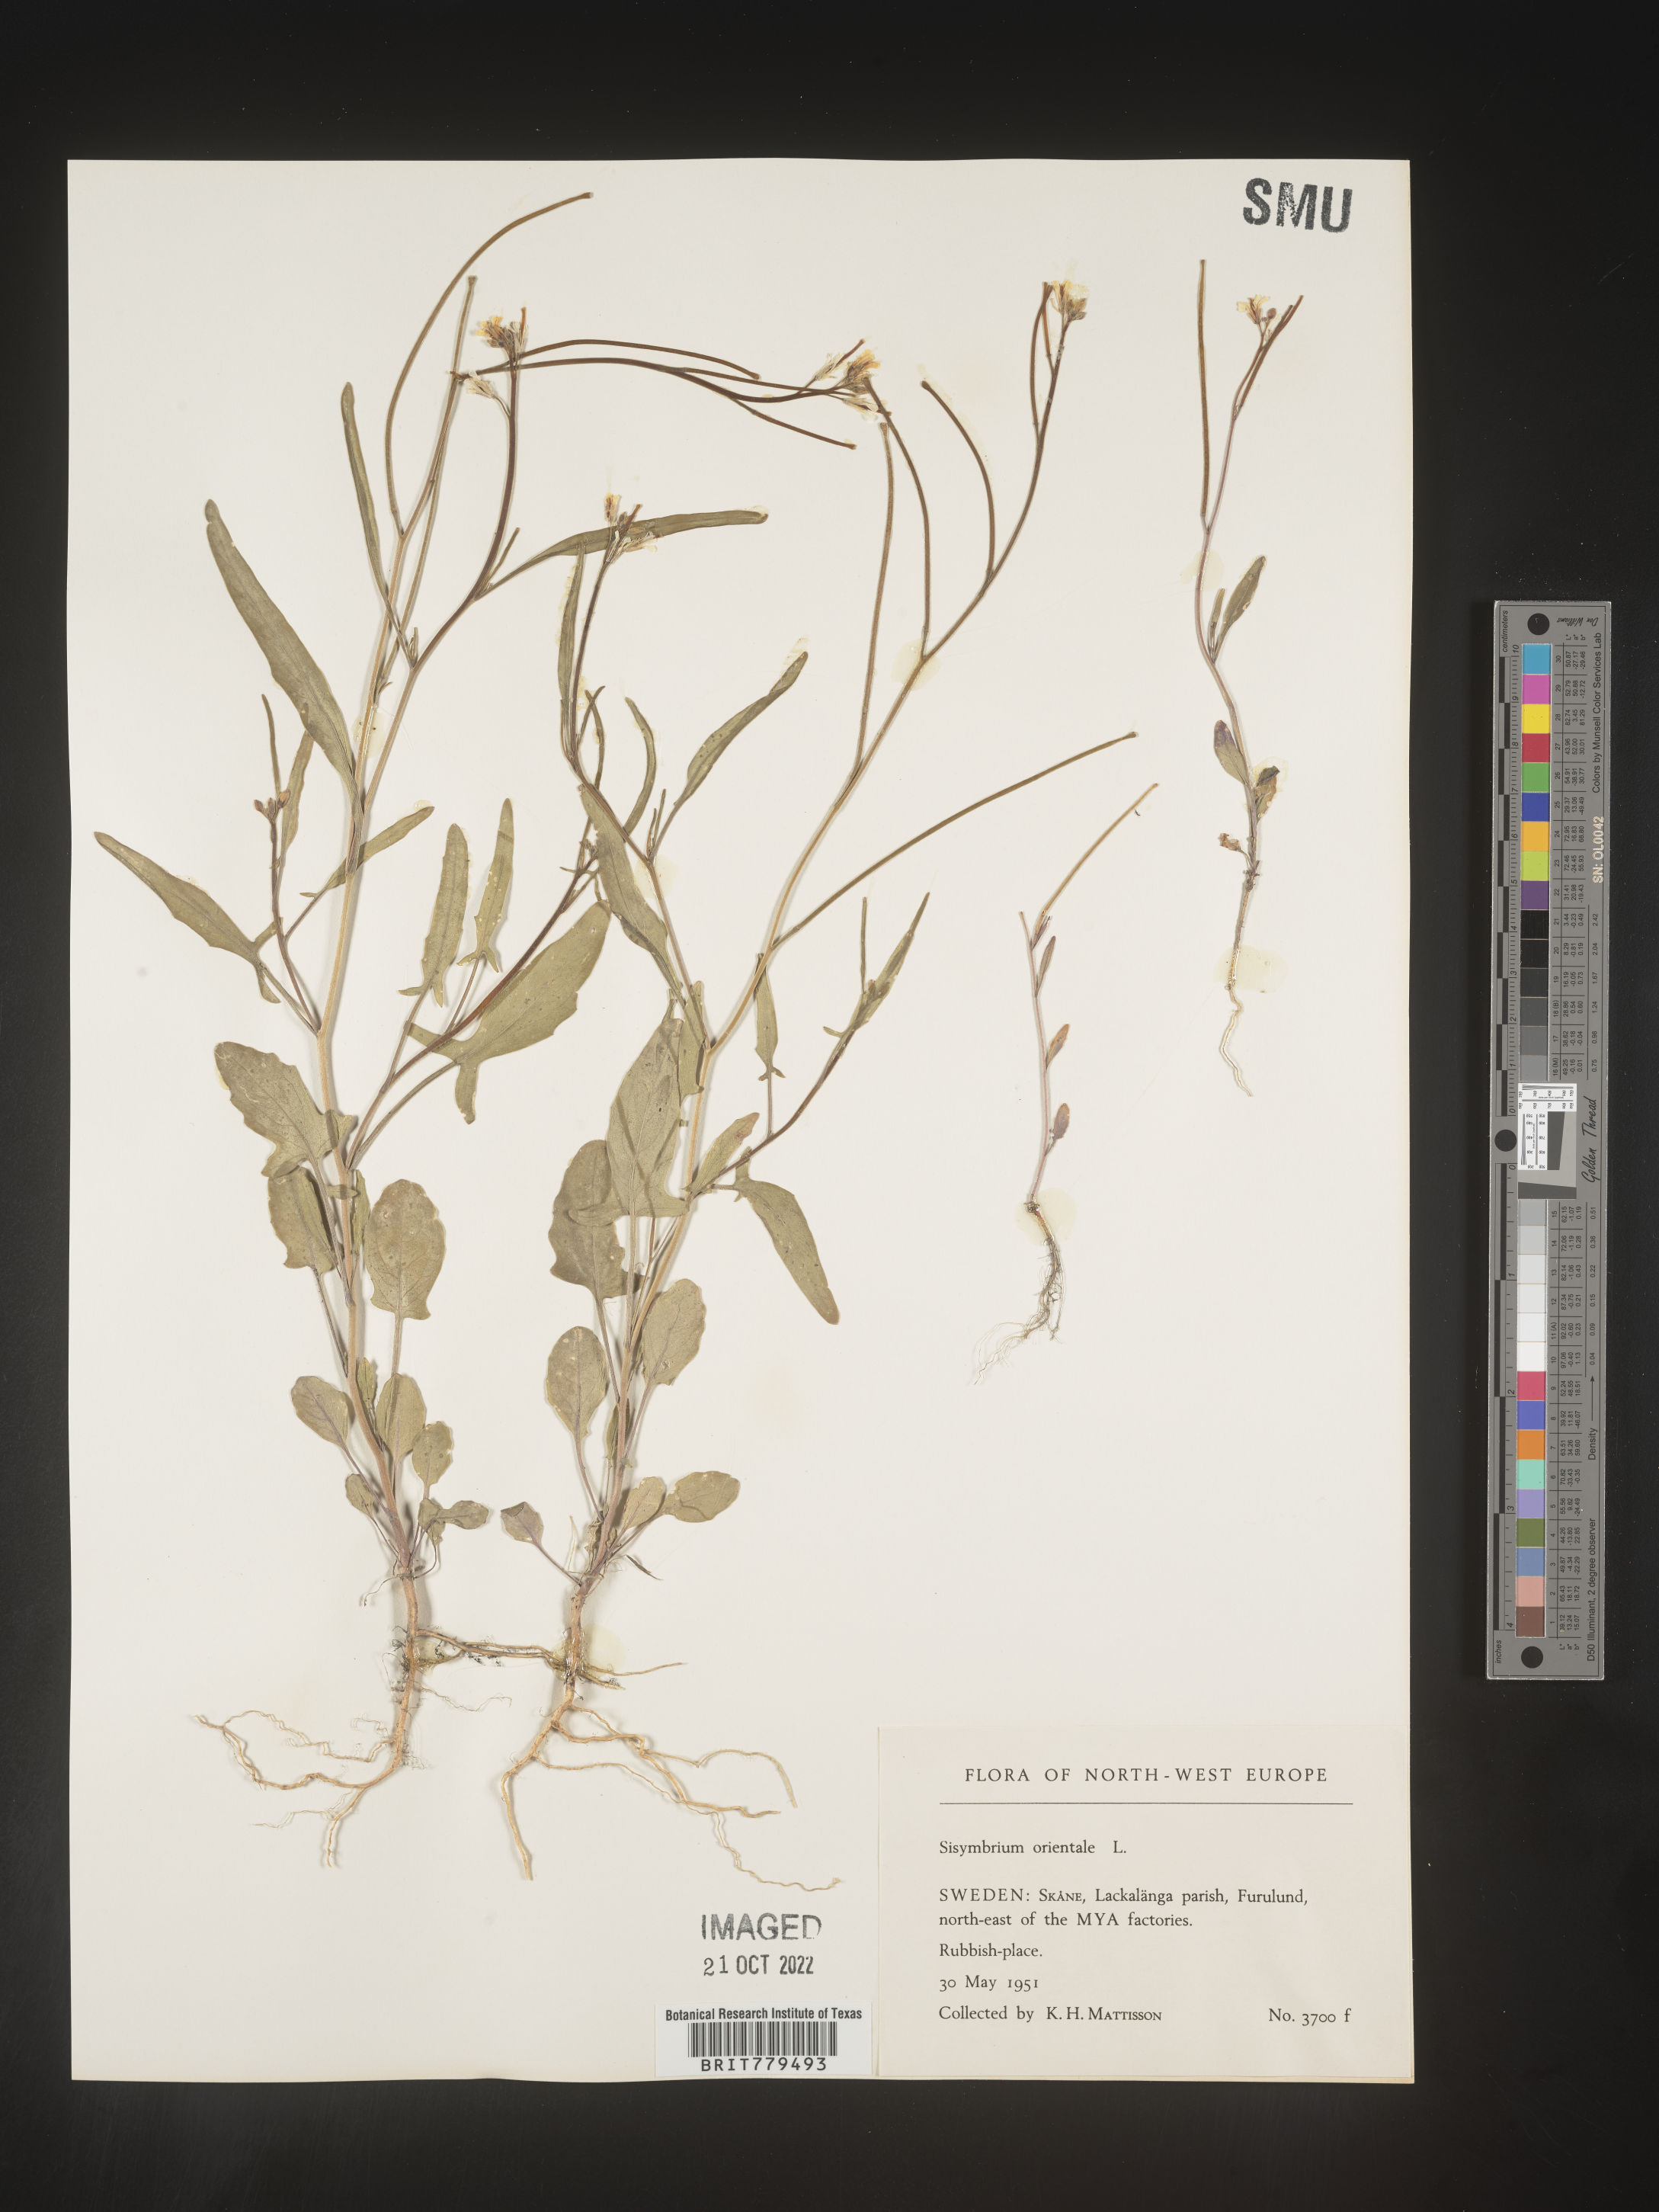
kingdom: Plantae
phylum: Tracheophyta
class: Magnoliopsida
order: Brassicales
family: Brassicaceae
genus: Sisymbrium
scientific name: Sisymbrium
